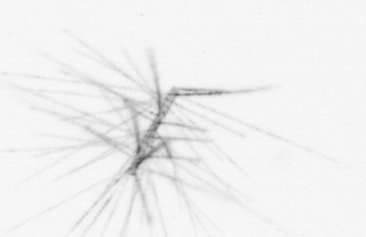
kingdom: Chromista
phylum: Ochrophyta
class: Bacillariophyceae
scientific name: Bacillariophyceae
